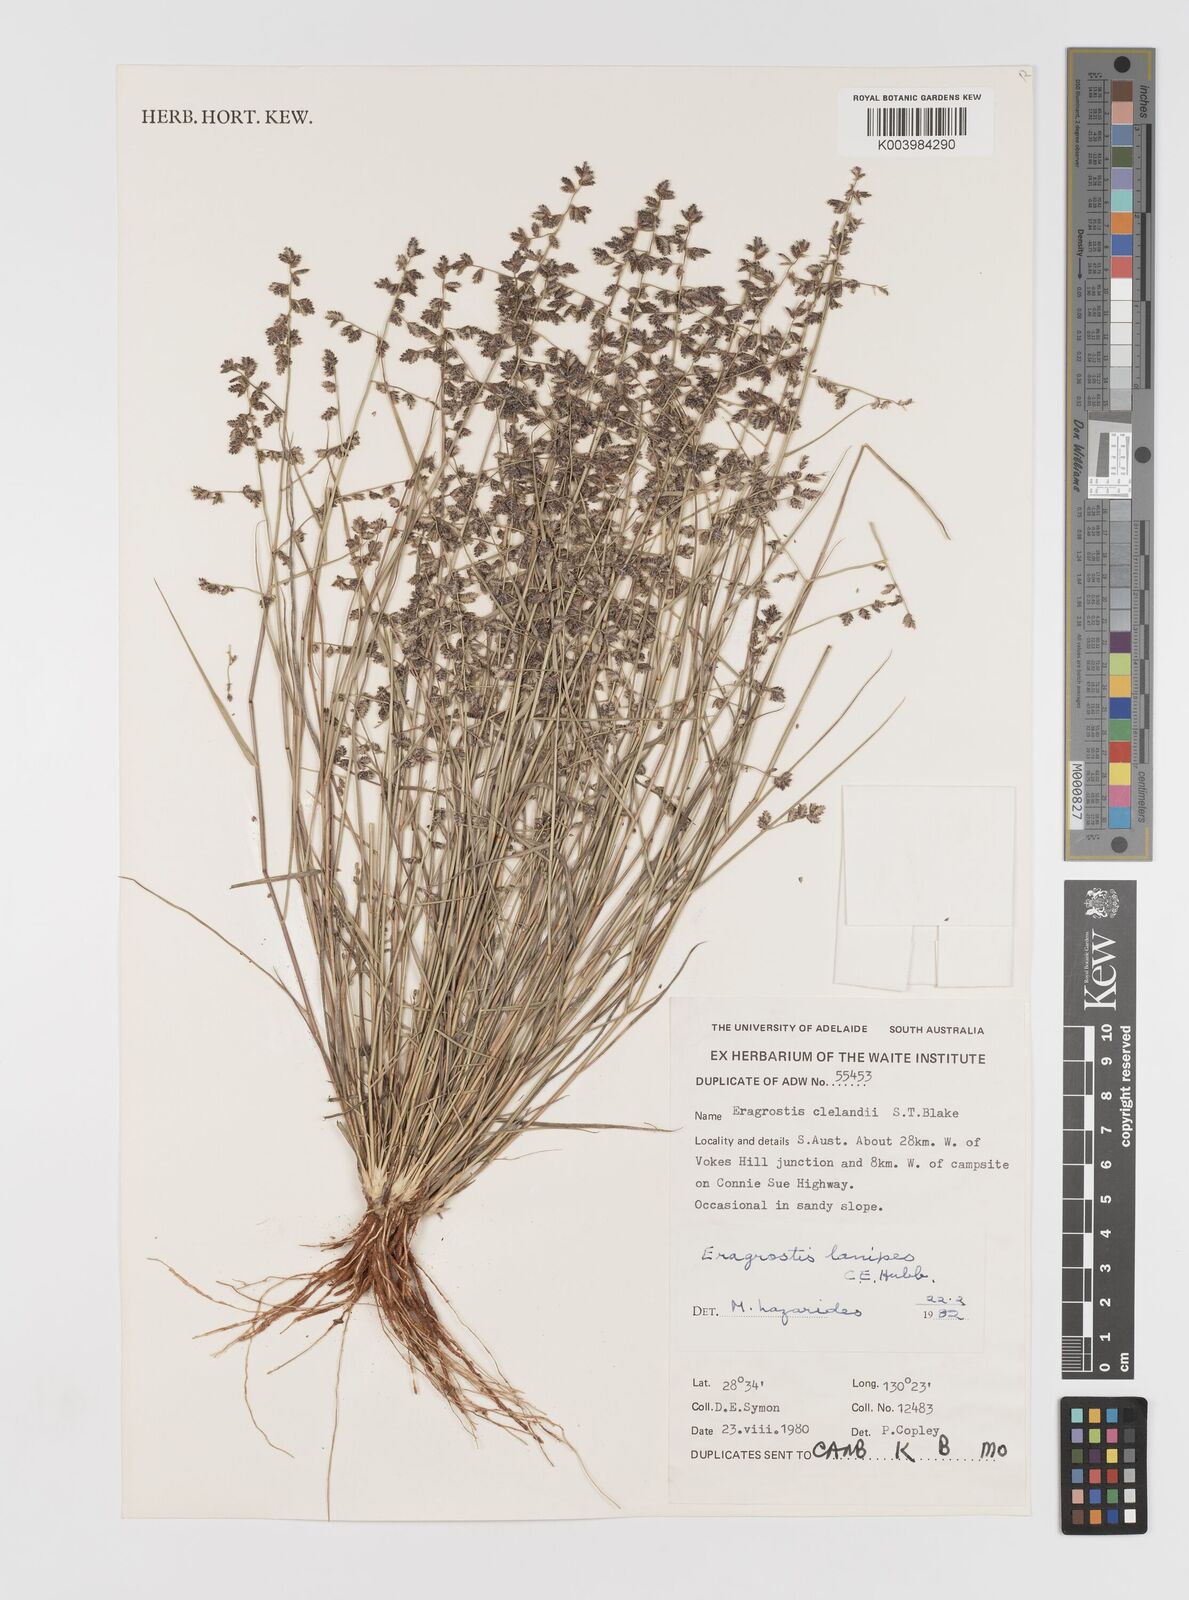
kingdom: Plantae
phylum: Tracheophyta
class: Liliopsida
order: Poales
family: Poaceae
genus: Eragrostis
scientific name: Eragrostis lanipes
